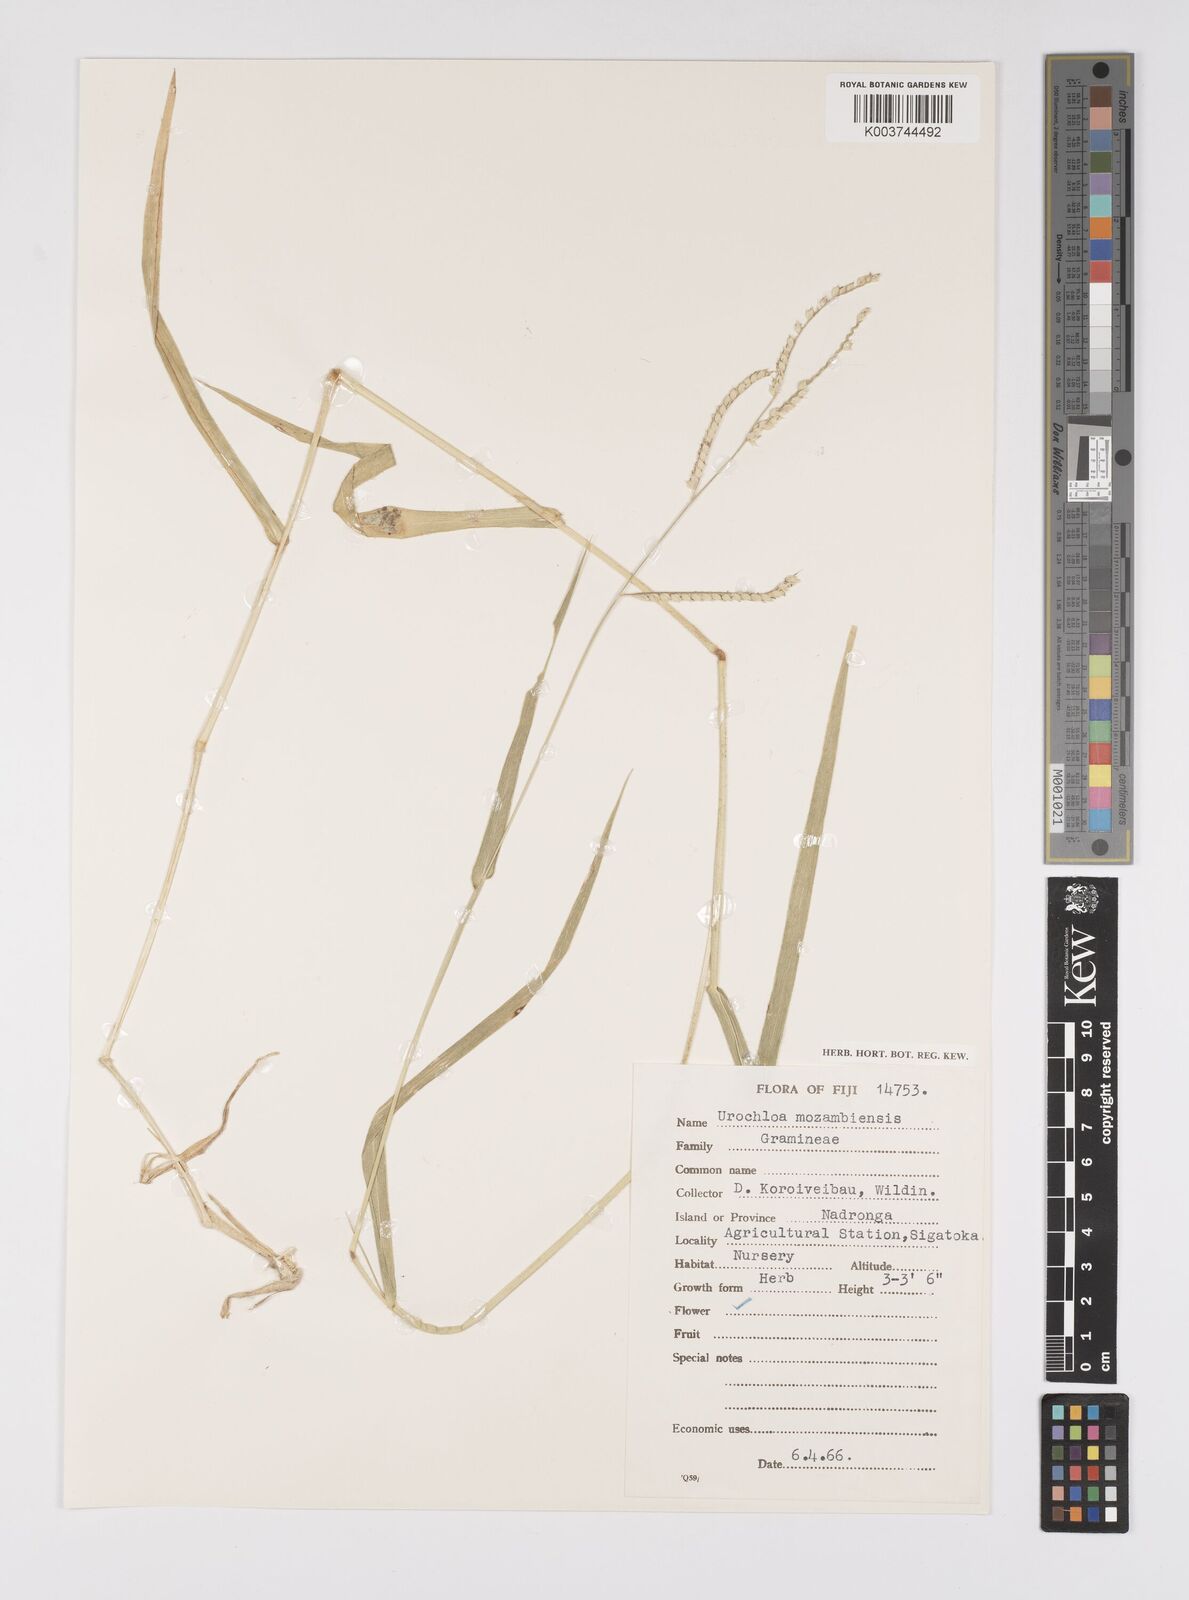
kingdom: Plantae
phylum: Tracheophyta
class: Liliopsida
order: Poales
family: Poaceae
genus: Urochloa
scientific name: Urochloa trichopus
